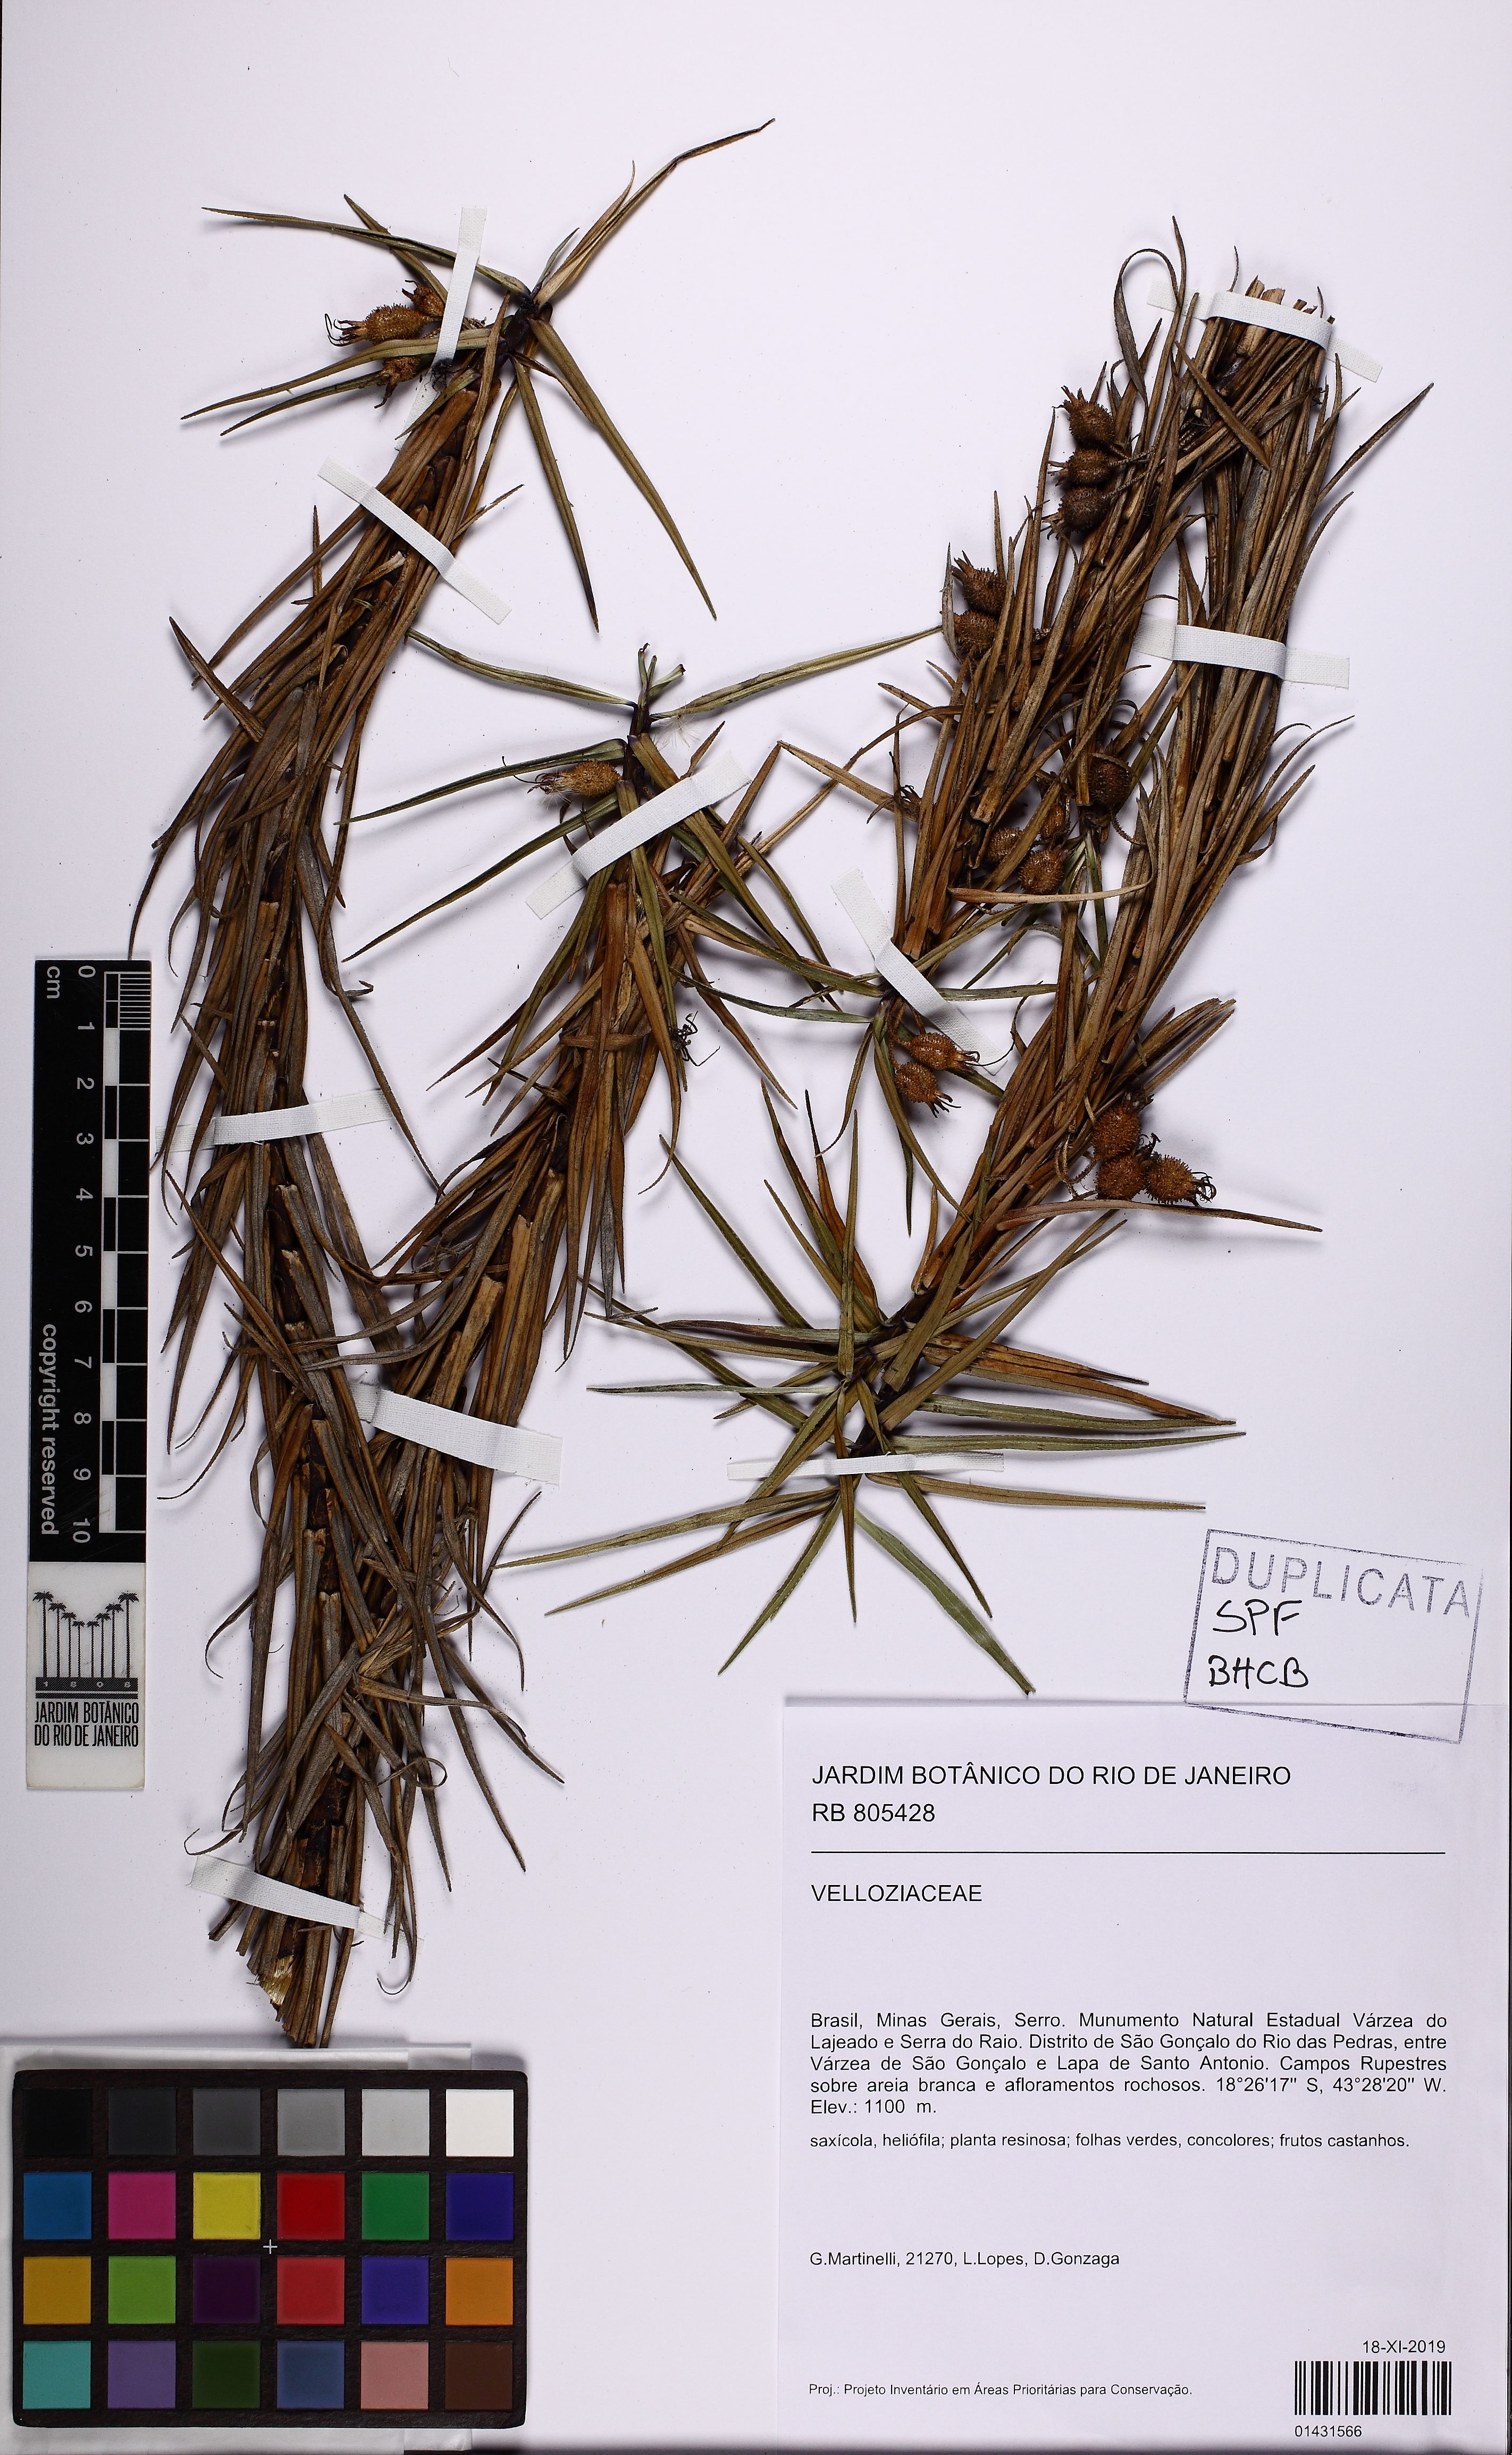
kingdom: Plantae
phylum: Tracheophyta
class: Liliopsida
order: Pandanales
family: Velloziaceae
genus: Vellozia
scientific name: Vellozia marcescens
